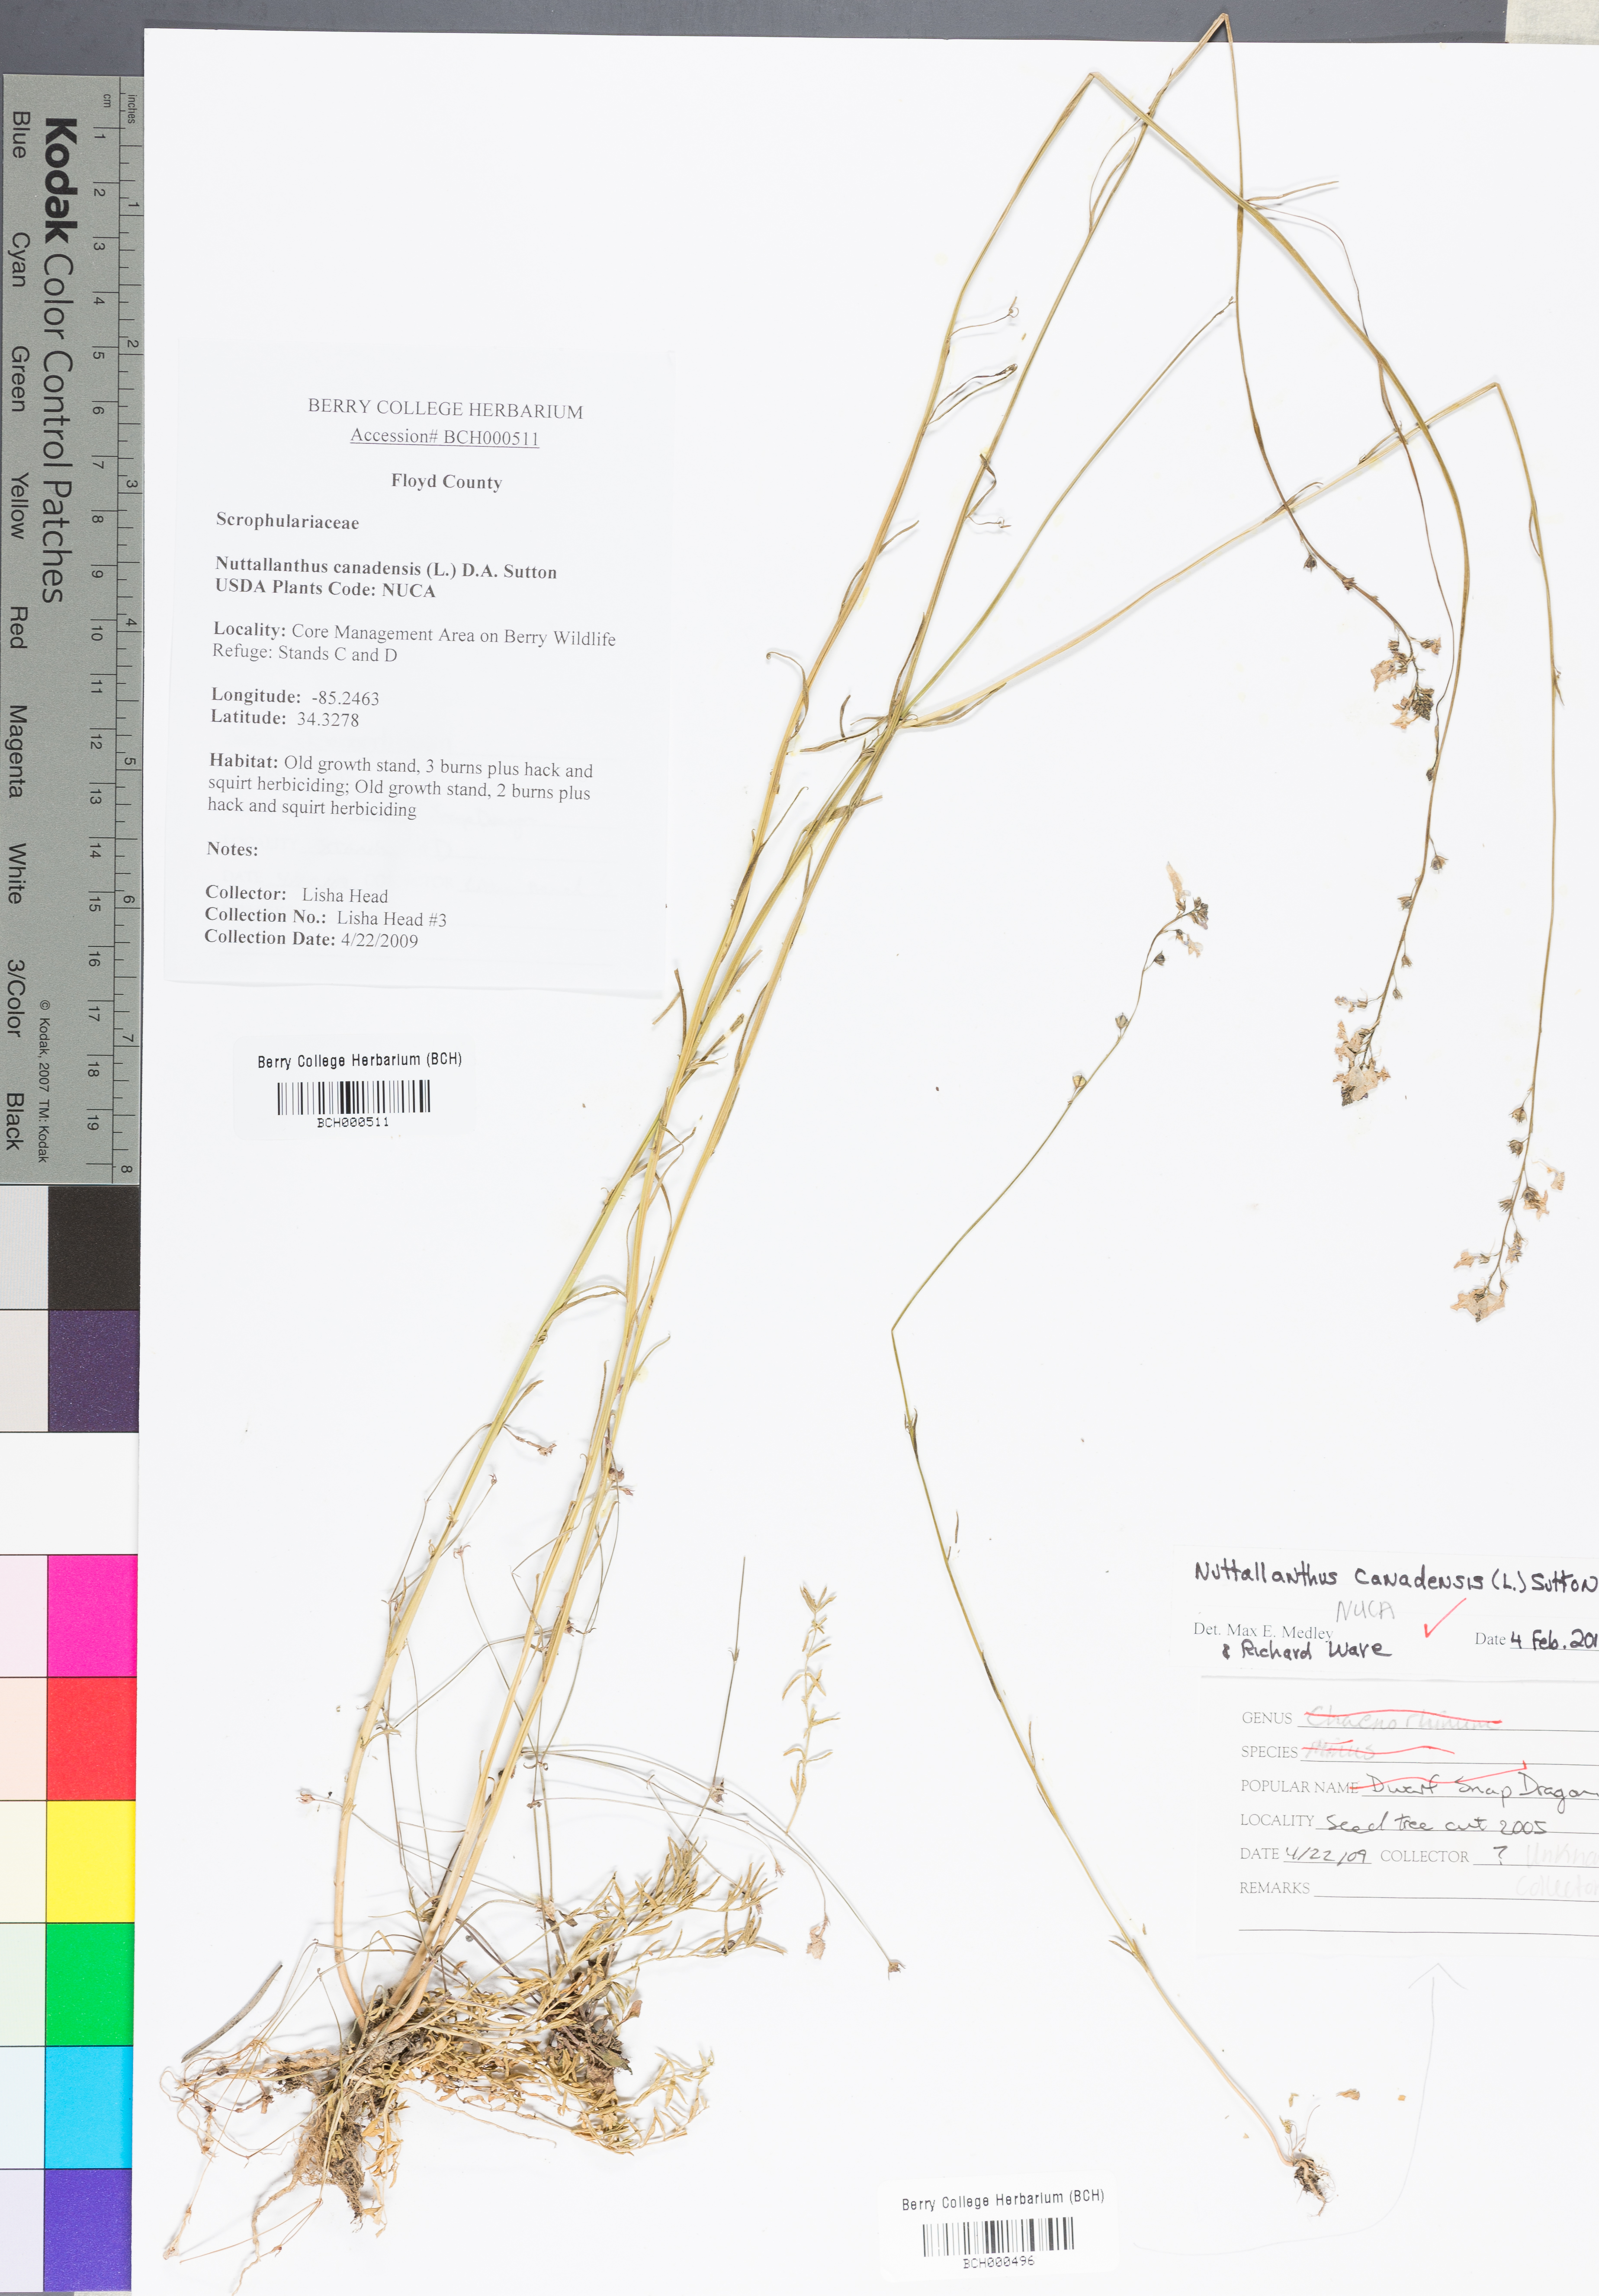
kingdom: Plantae
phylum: Tracheophyta
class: Magnoliopsida
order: Lamiales
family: Plantaginaceae
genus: Nuttallanthus
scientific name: Nuttallanthus canadensis
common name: Blue toadflax
